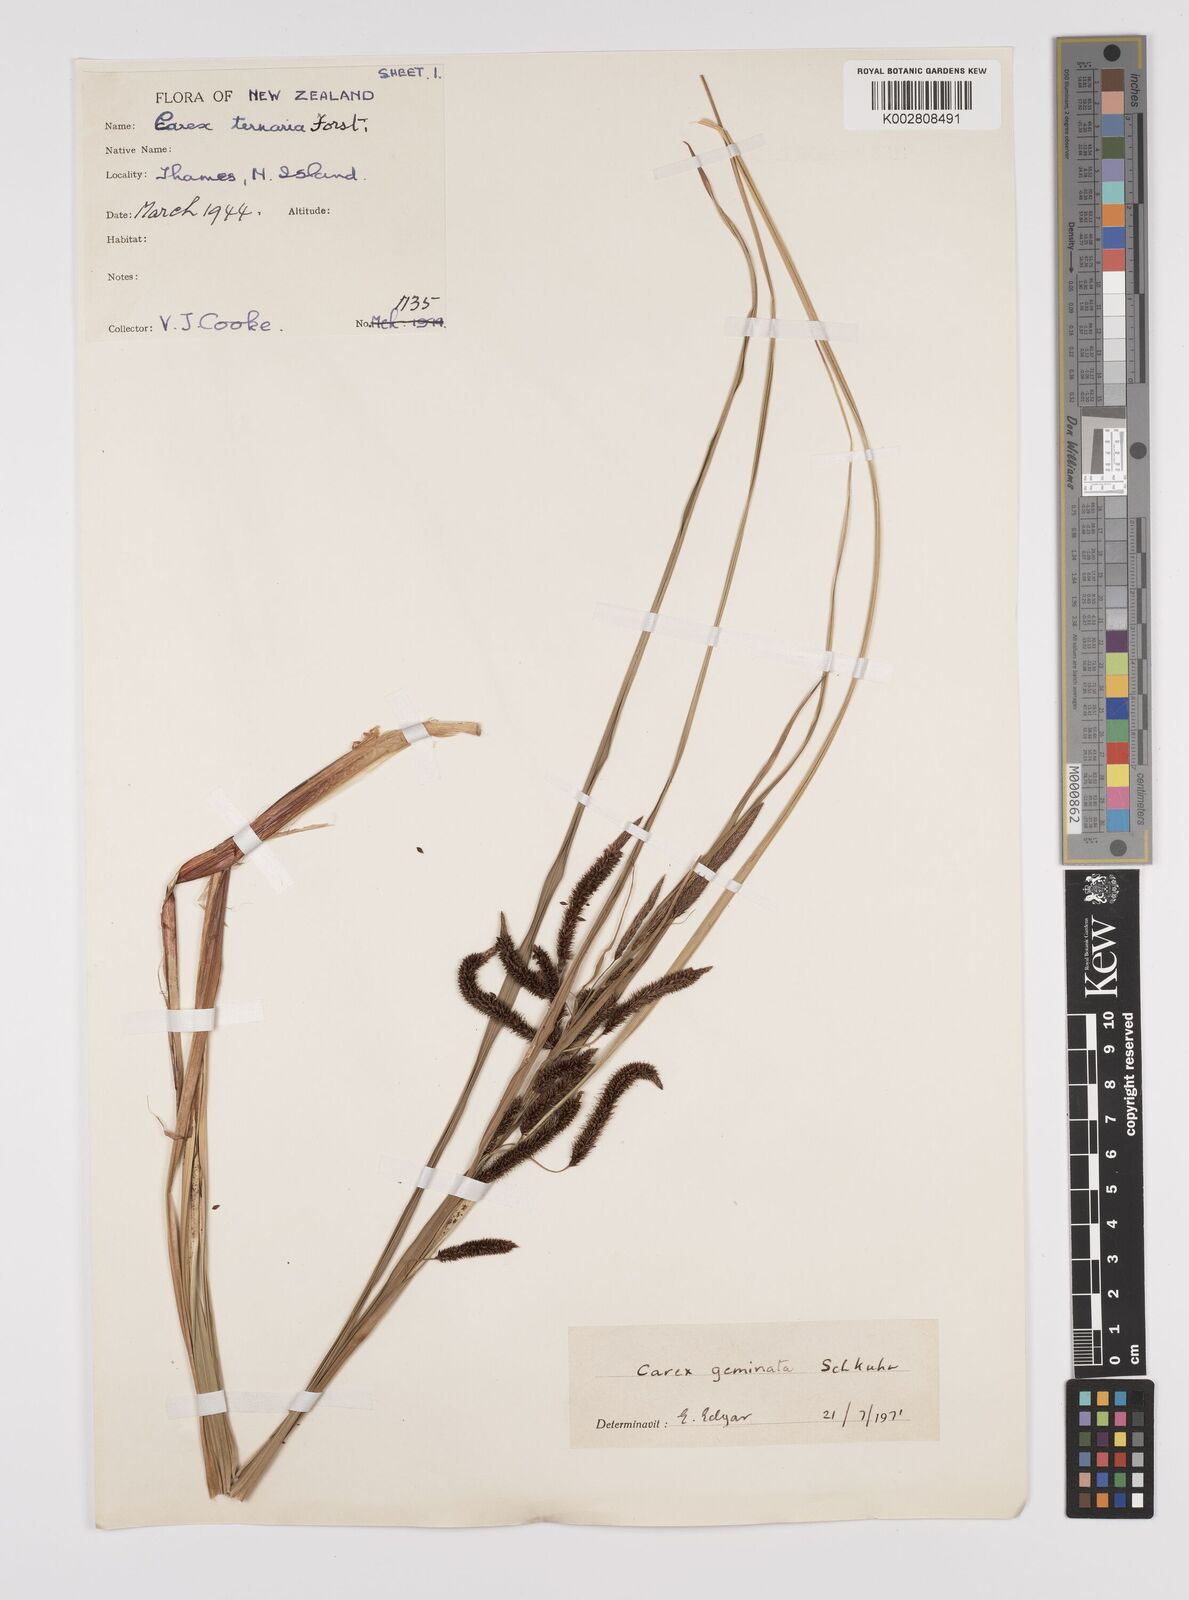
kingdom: Plantae
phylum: Tracheophyta
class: Liliopsida
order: Poales
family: Cyperaceae
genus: Carex
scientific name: Carex geminata
